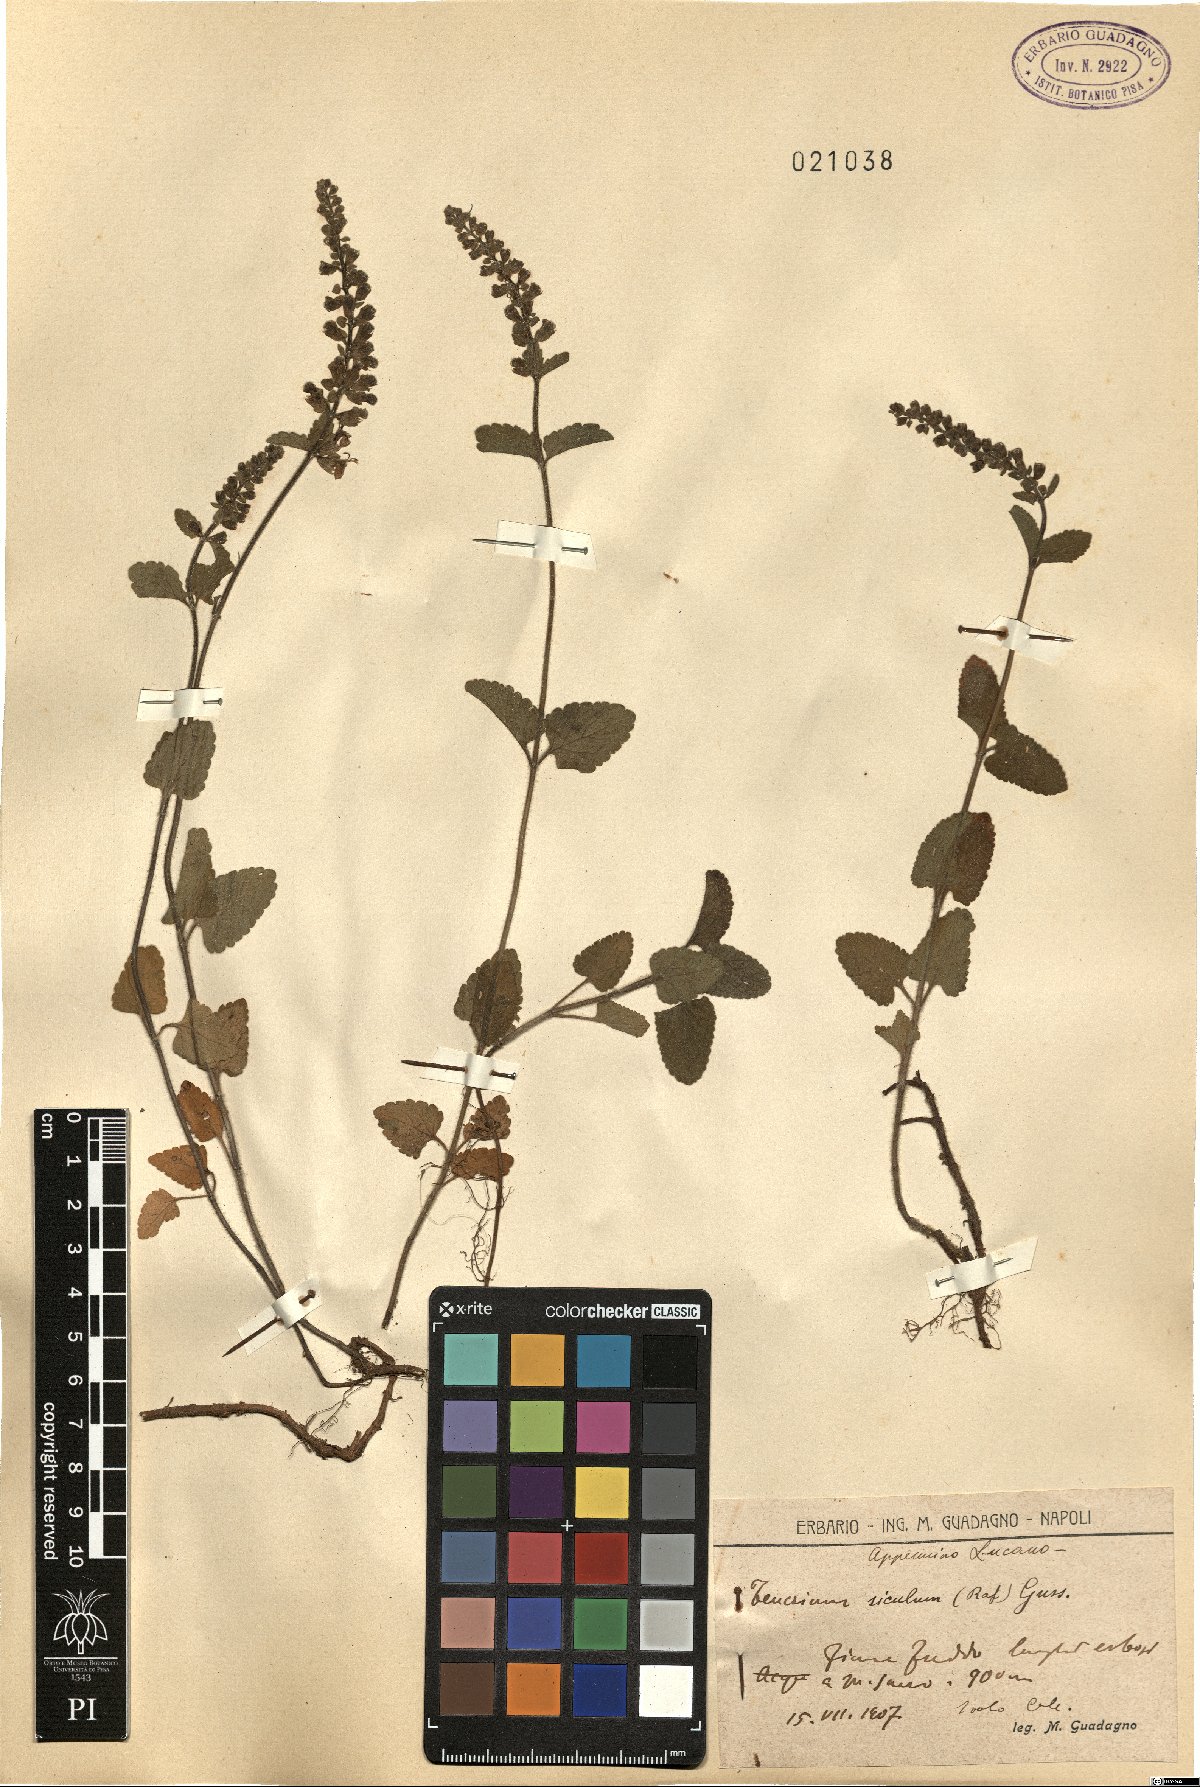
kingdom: Plantae
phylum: Tracheophyta
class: Magnoliopsida
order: Lamiales
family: Lamiaceae
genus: Teucrium
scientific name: Teucrium siculum
